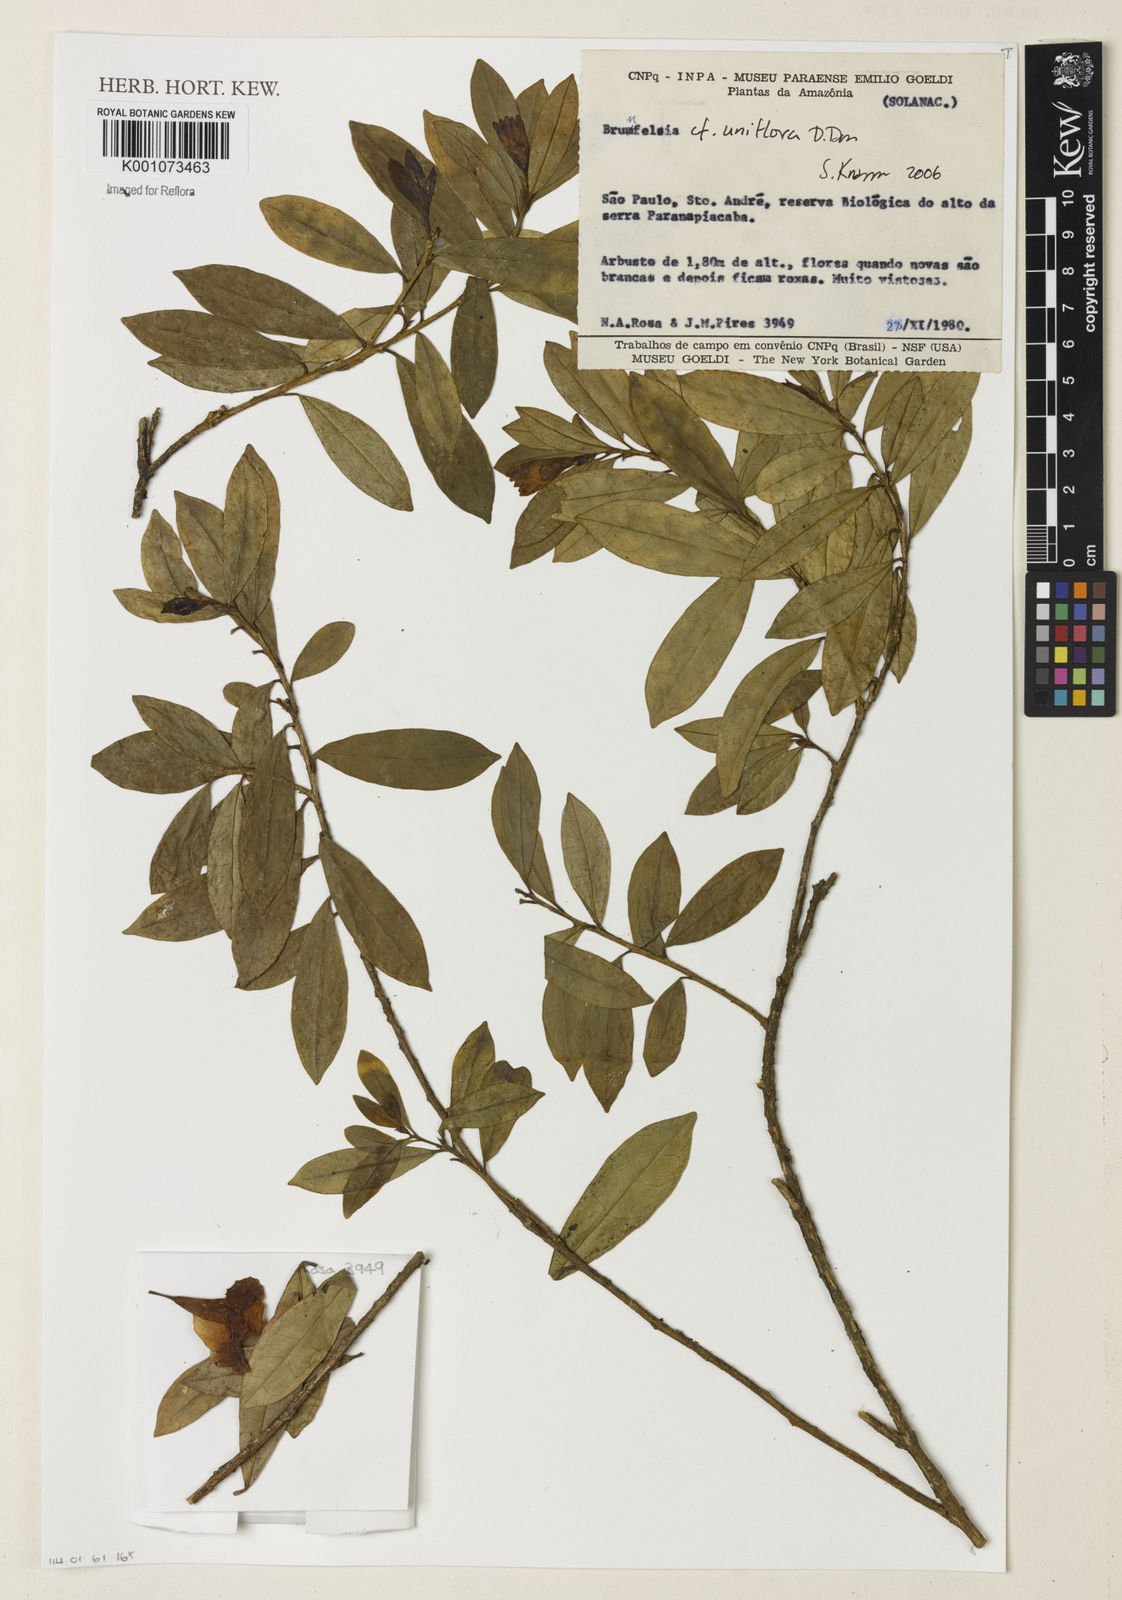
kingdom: Plantae
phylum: Tracheophyta
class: Magnoliopsida
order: Solanales
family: Solanaceae
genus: Brunfelsia
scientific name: Brunfelsia uniflora
